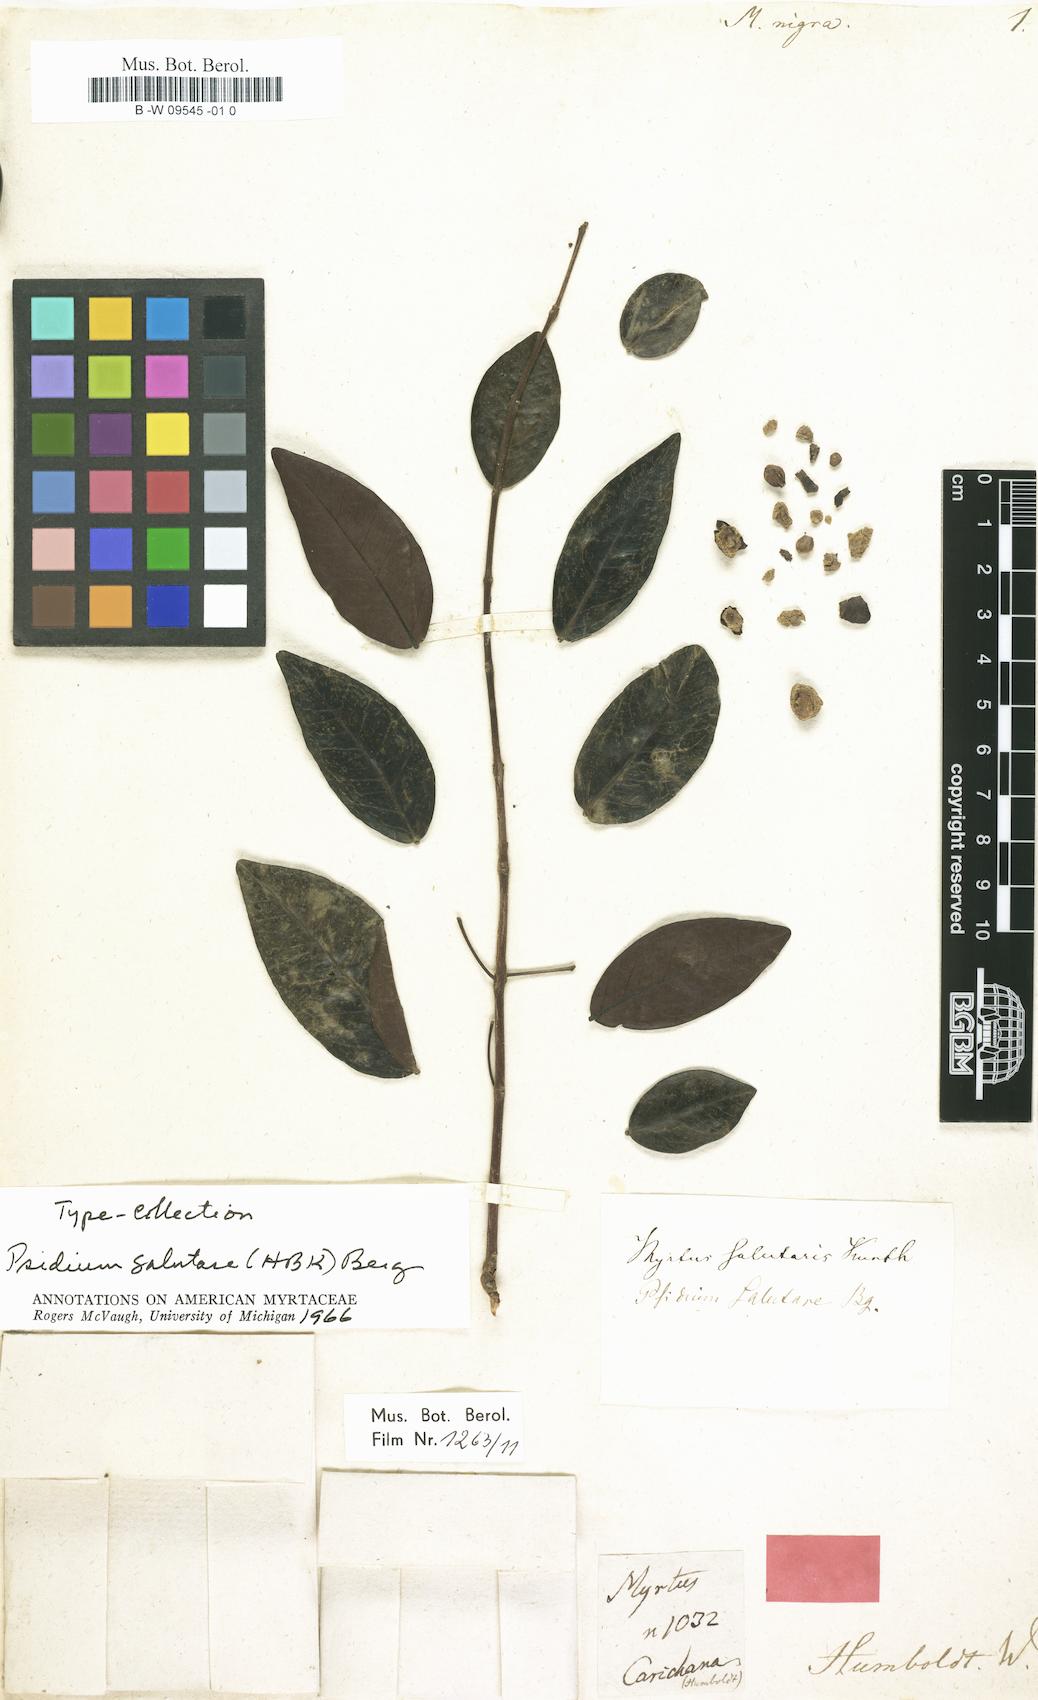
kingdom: Plantae
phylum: Tracheophyta
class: Magnoliopsida
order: Myrtales
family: Myrtaceae
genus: Myrtus
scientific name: Myrtus nigra
